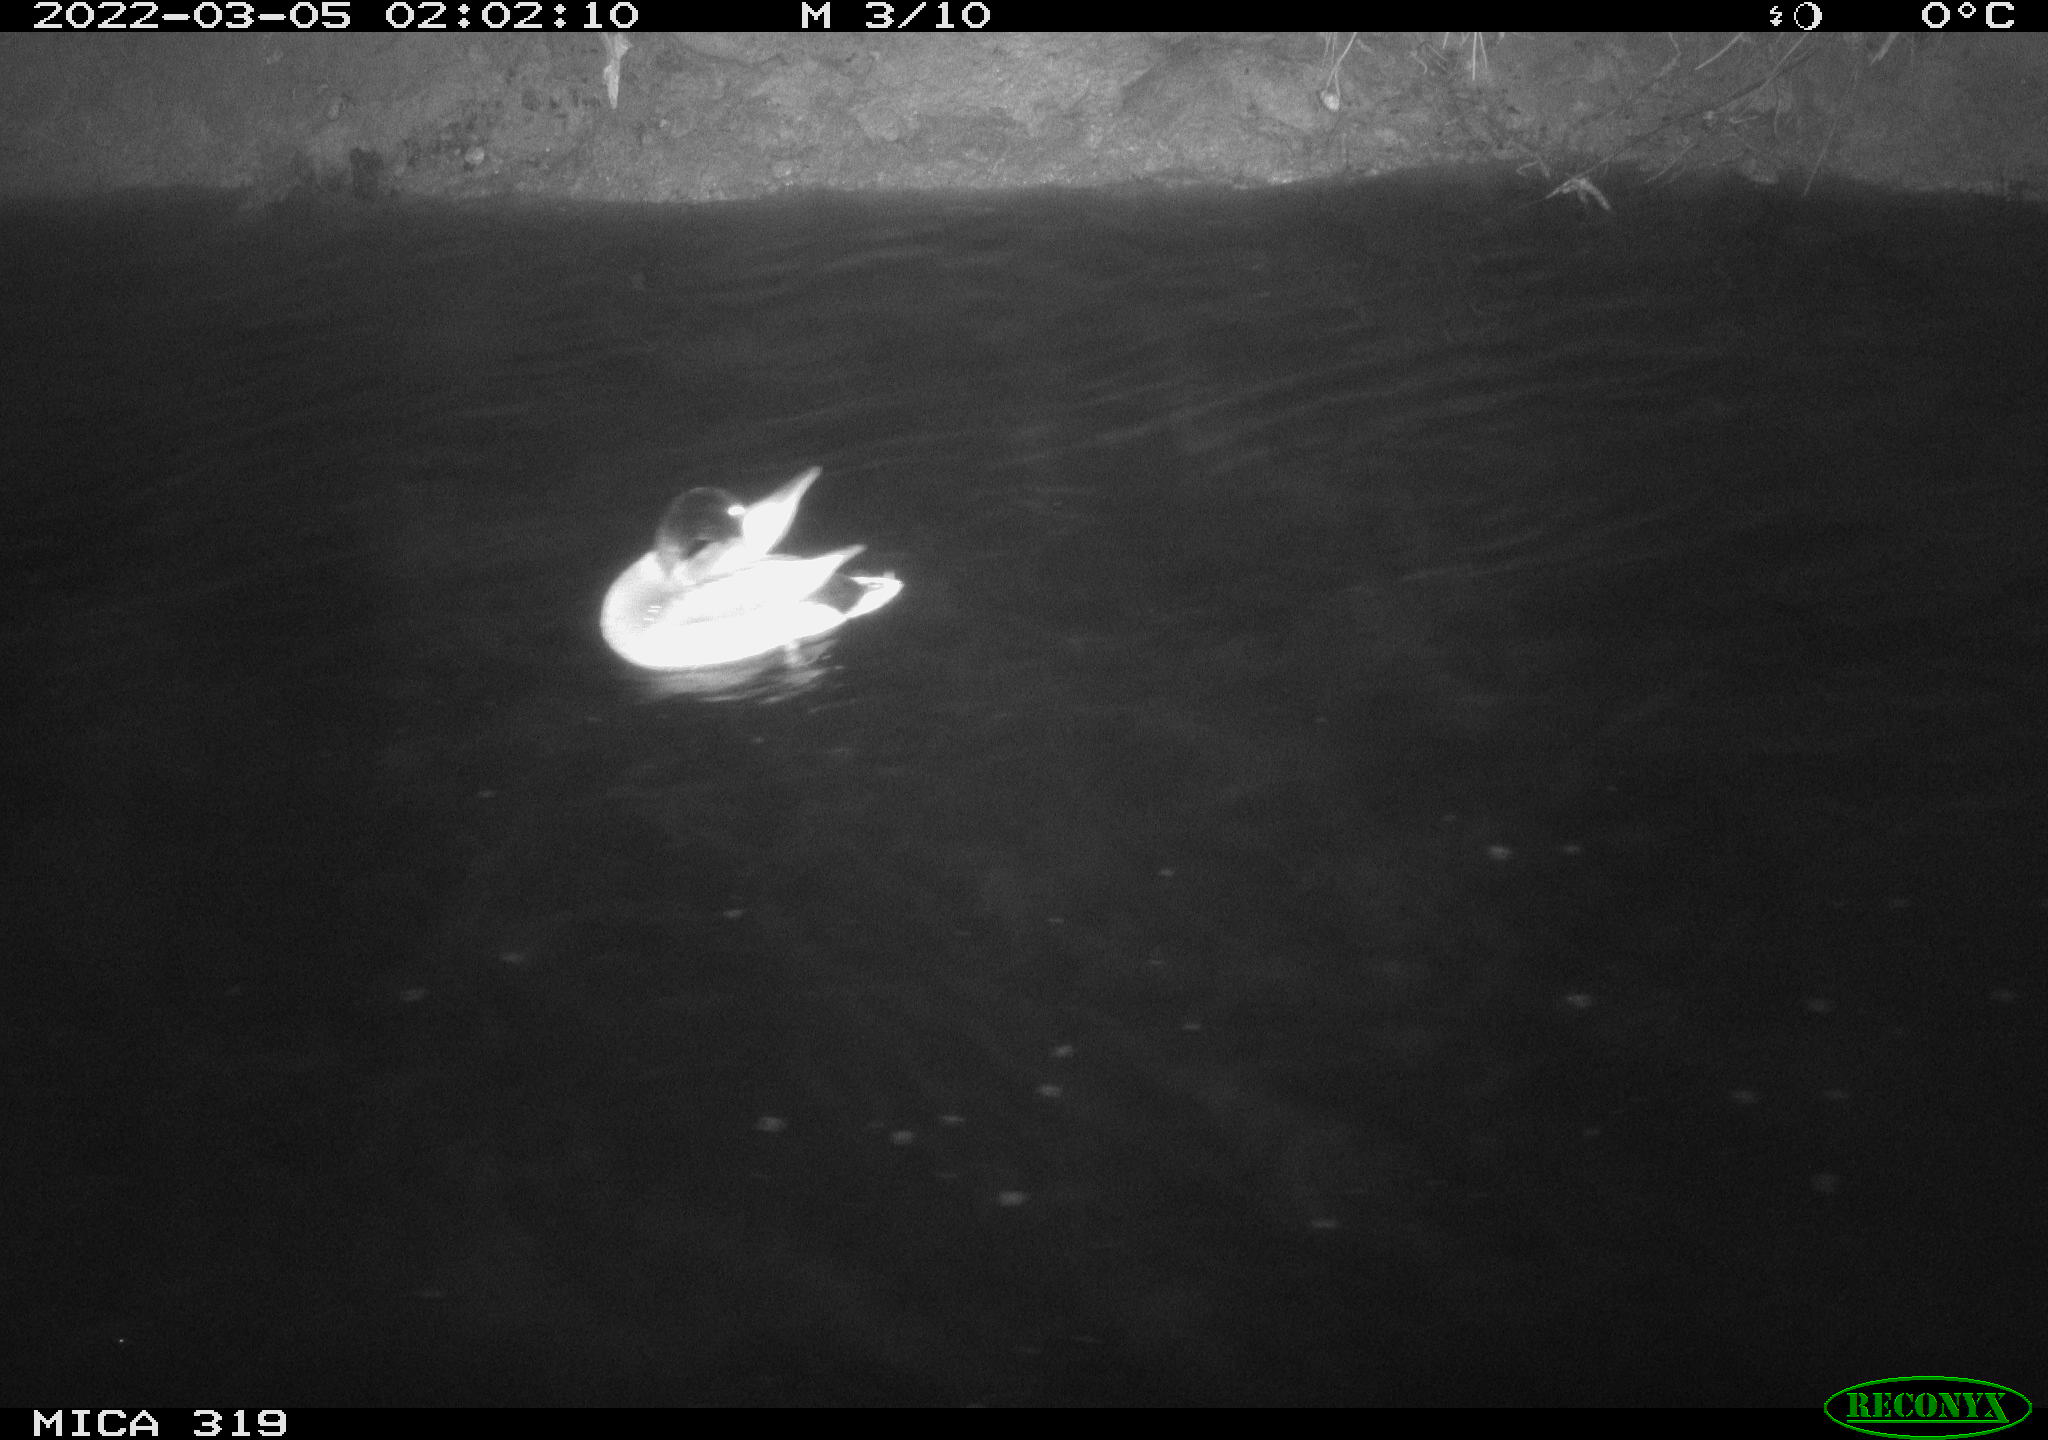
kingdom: Animalia
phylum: Chordata
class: Aves
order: Anseriformes
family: Anatidae
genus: Anas
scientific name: Anas platyrhynchos
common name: Mallard
